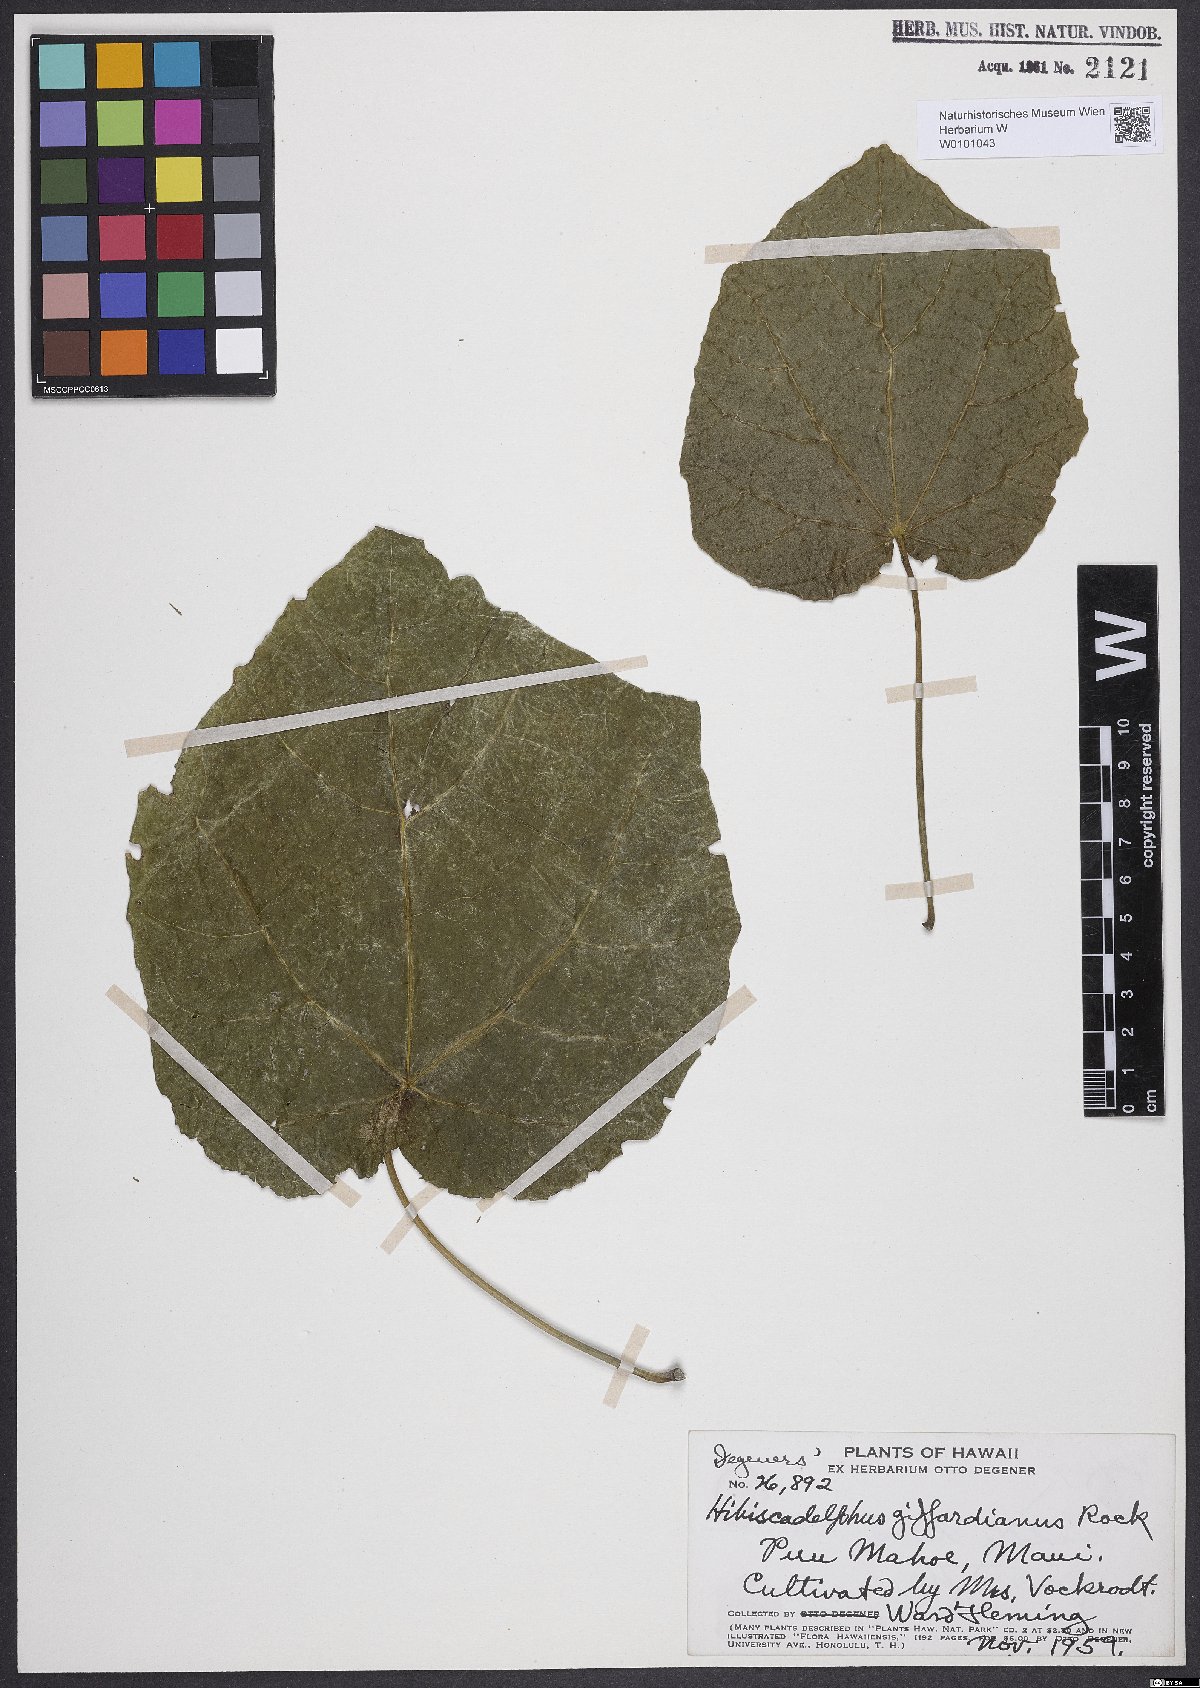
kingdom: Plantae
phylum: Tracheophyta
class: Magnoliopsida
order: Malvales
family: Malvaceae
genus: Hibiscadelphus
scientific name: Hibiscadelphus giffardianus
